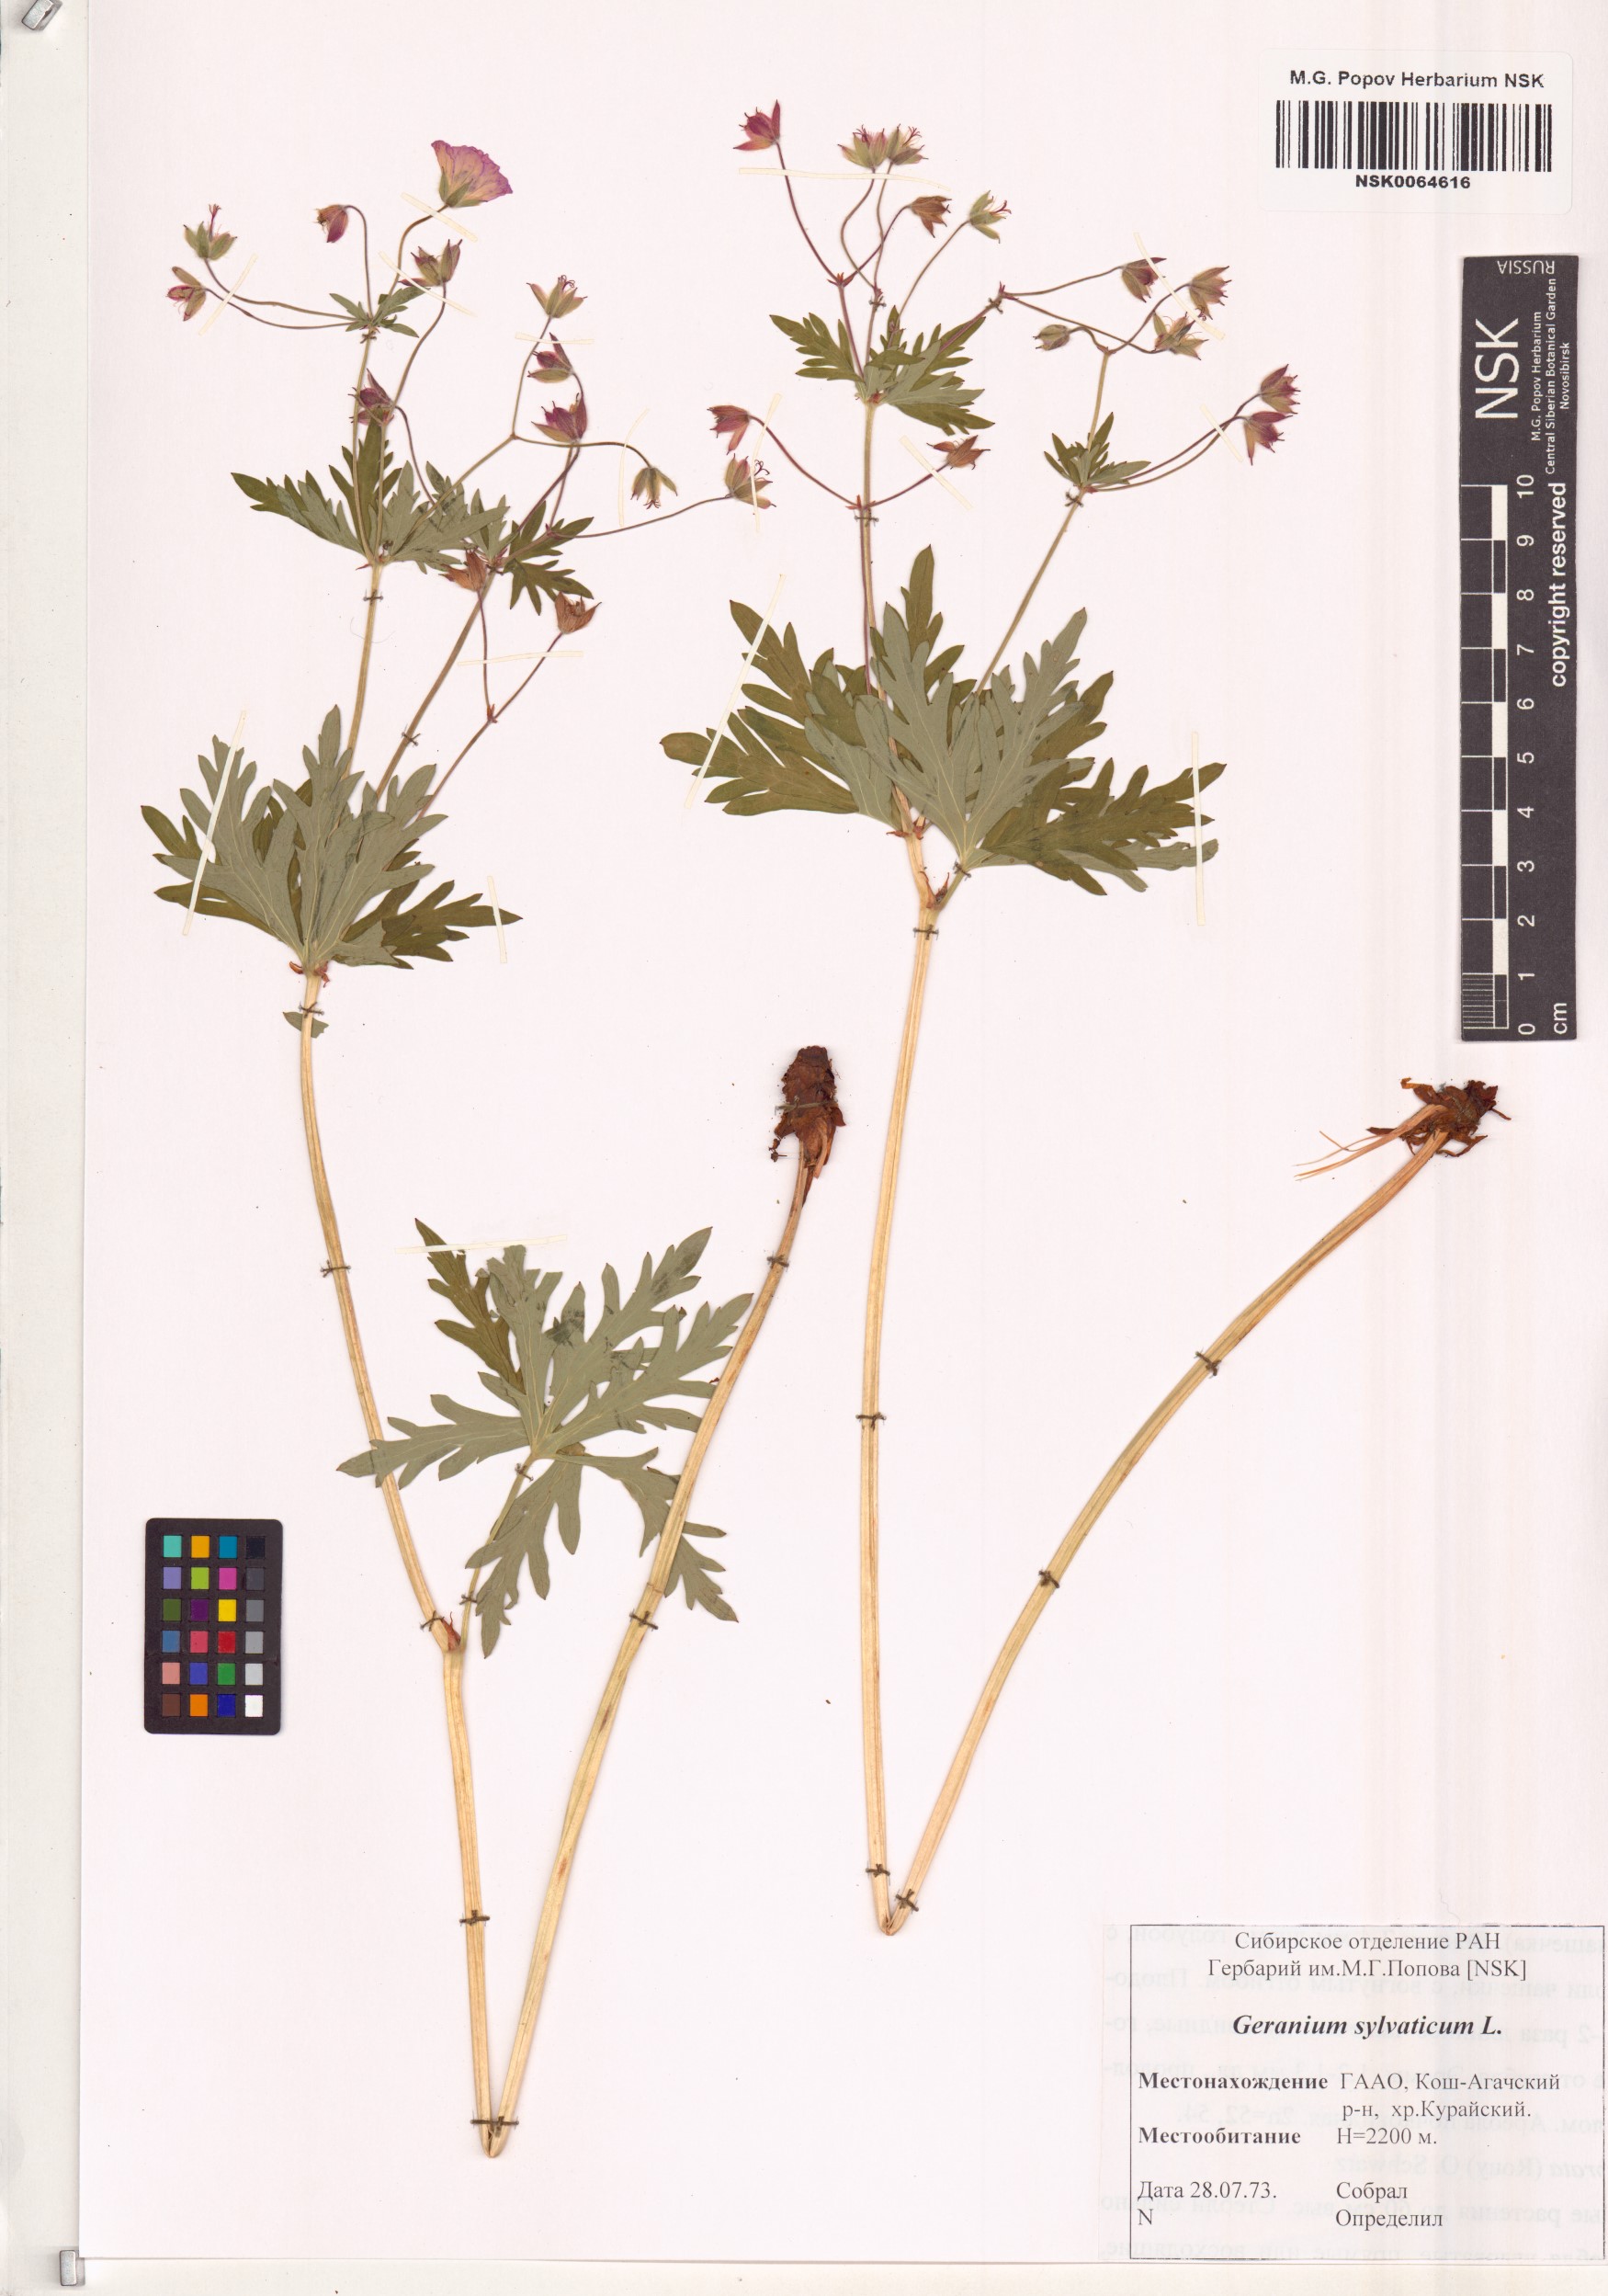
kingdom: Plantae
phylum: Tracheophyta
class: Magnoliopsida
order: Geraniales
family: Geraniaceae
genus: Geranium
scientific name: Geranium sylvaticum
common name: Wood crane's-bill
